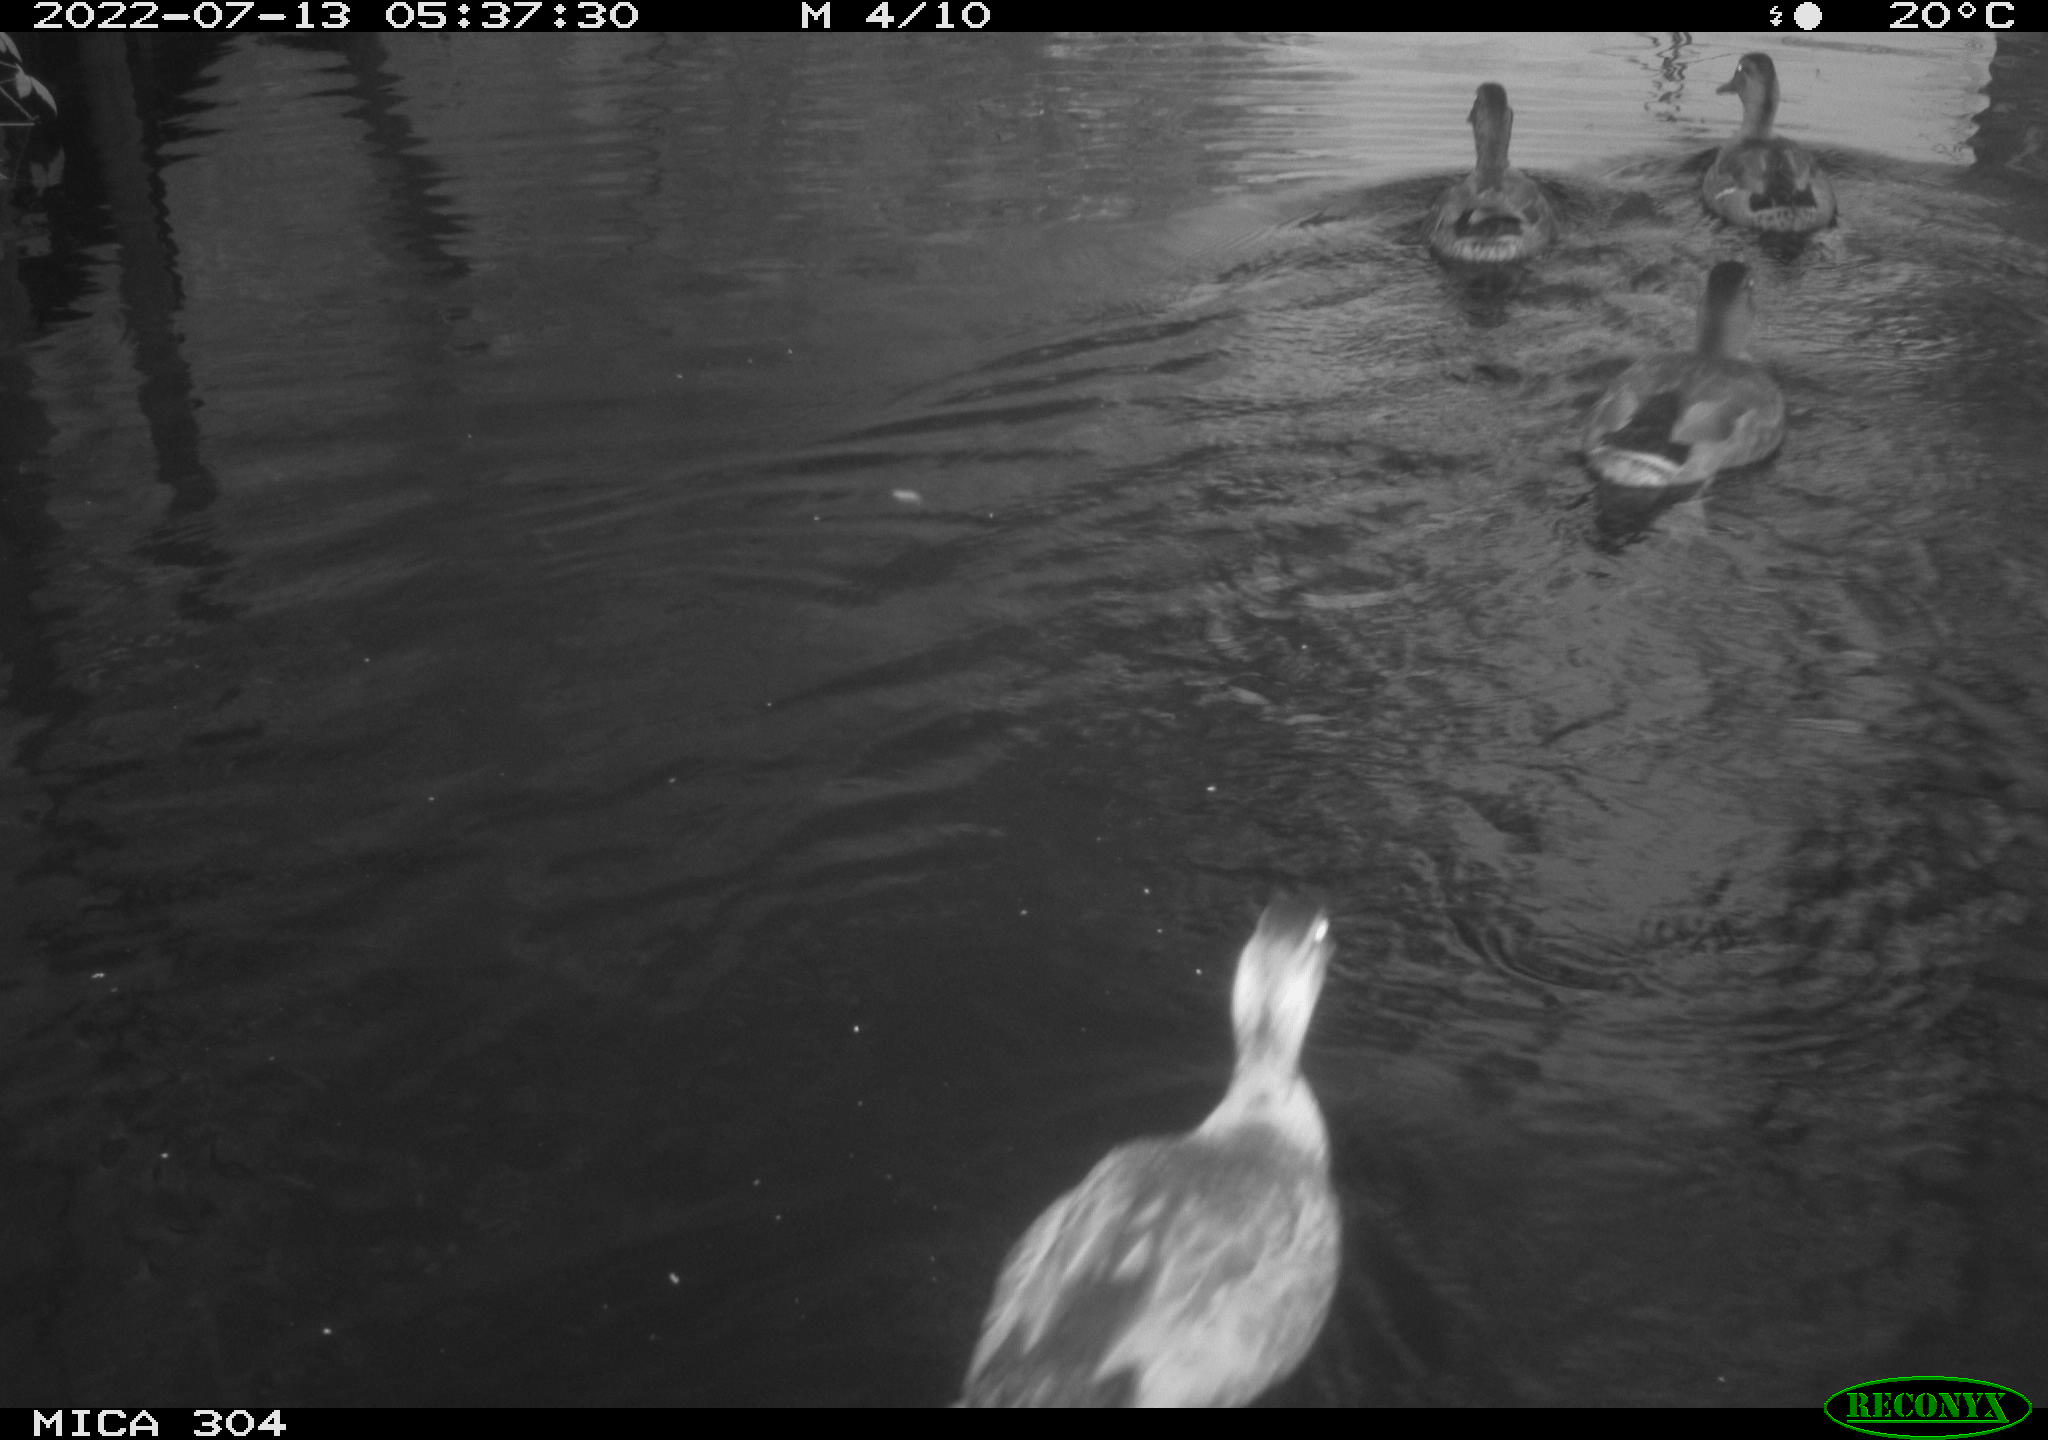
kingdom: Animalia
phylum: Chordata
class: Aves
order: Anseriformes
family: Anatidae
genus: Anas
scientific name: Anas platyrhynchos
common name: Mallard
